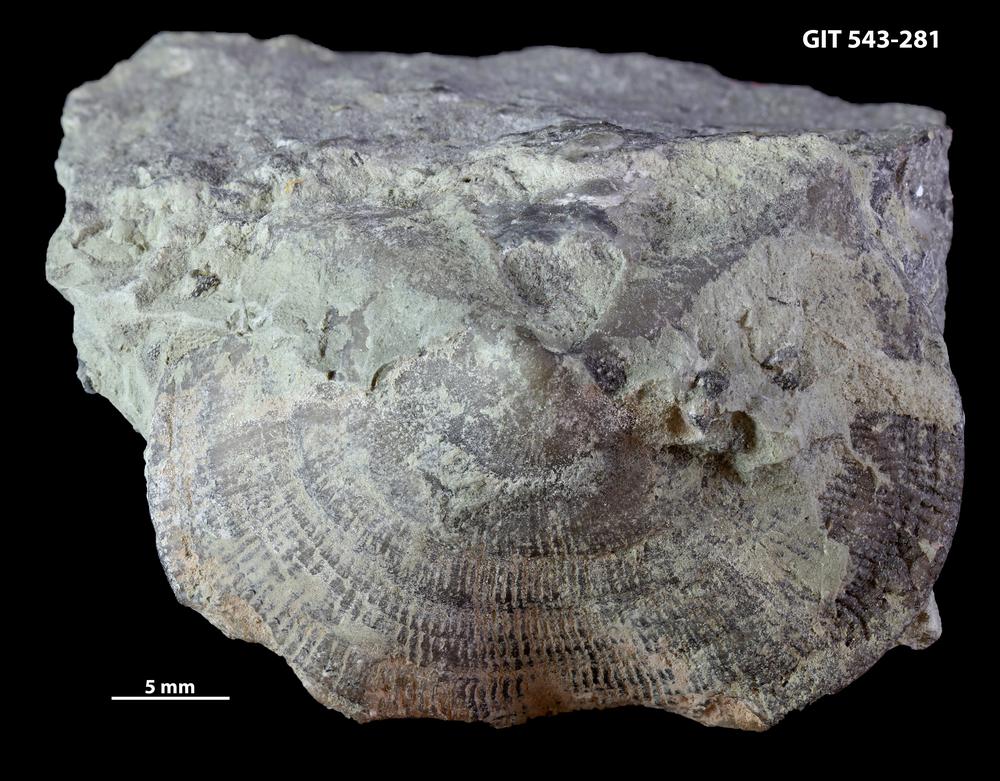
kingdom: Animalia
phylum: Brachiopoda
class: Rhynchonellata
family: Clitambonitidae
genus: Ilmarinia
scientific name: Ilmarinia dimorpha
